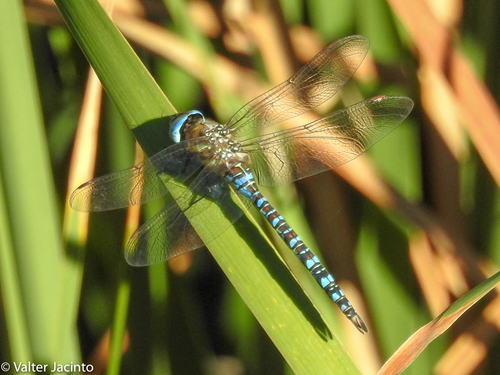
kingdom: Animalia
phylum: Arthropoda
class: Insecta
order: Odonata
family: Aeshnidae
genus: Aeshna
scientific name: Aeshna mixta
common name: Migrant hawker
